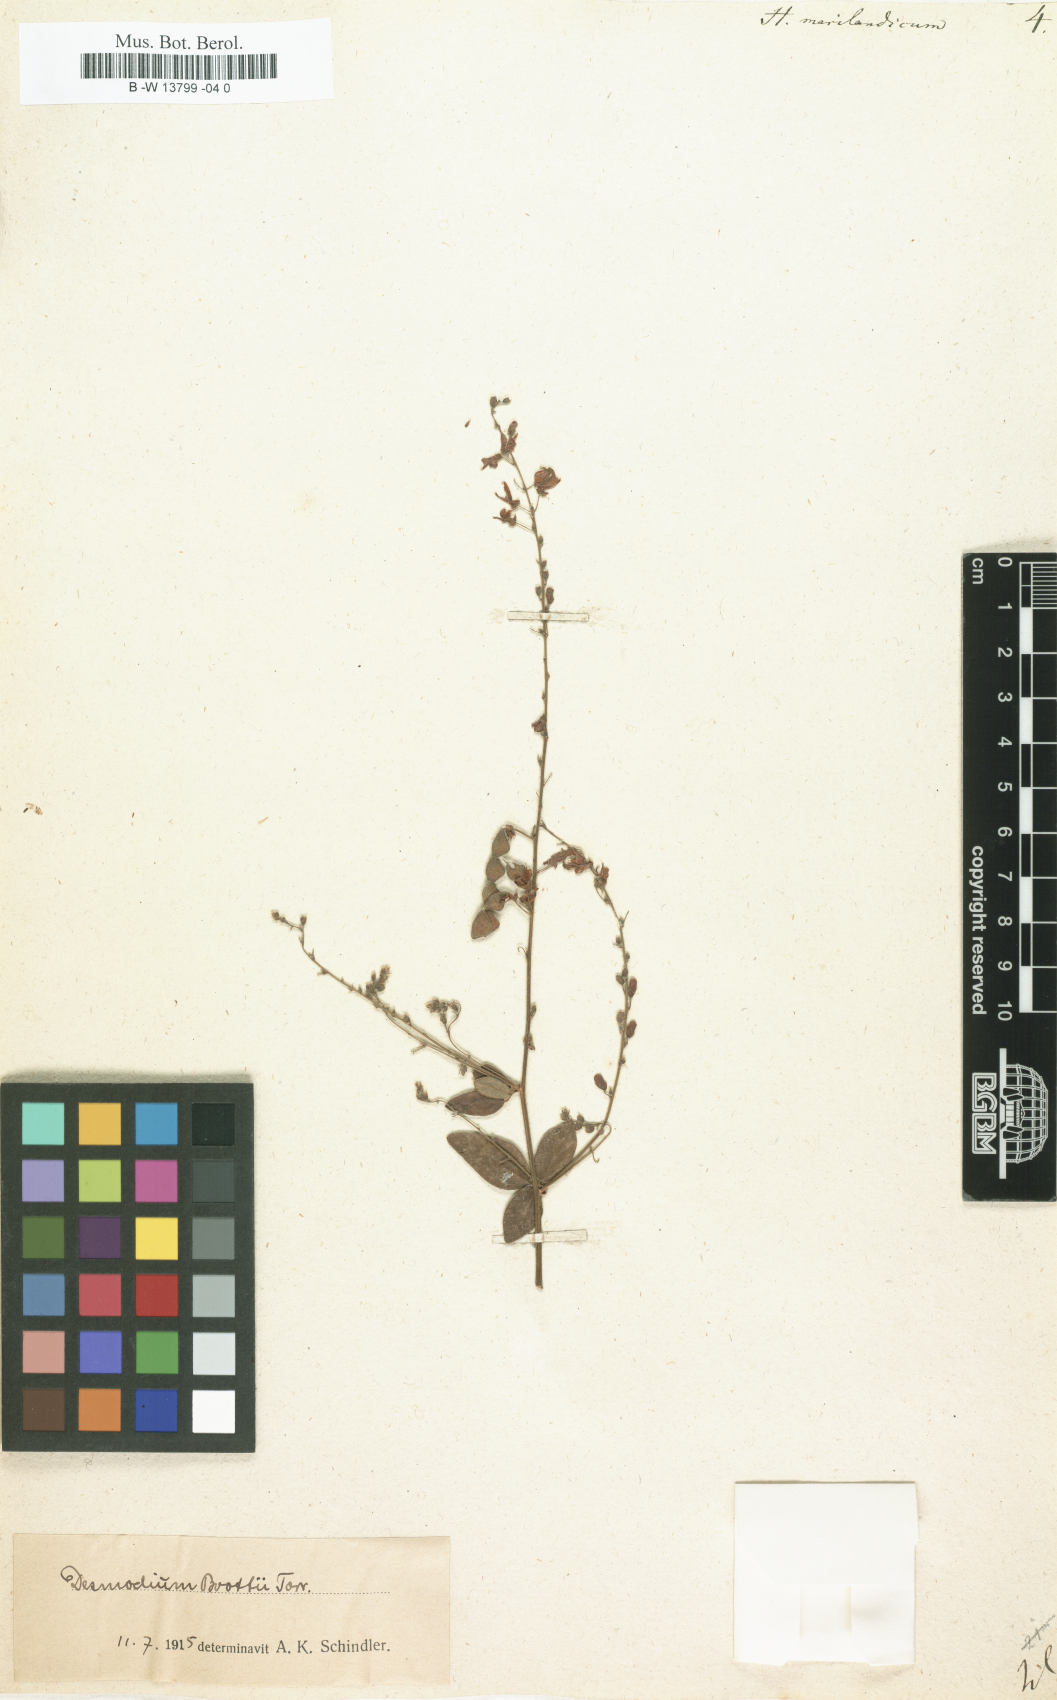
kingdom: Plantae
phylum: Tracheophyta
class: Magnoliopsida
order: Fabales
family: Fabaceae
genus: Hedysarum
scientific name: Hedysarum marilandicum
